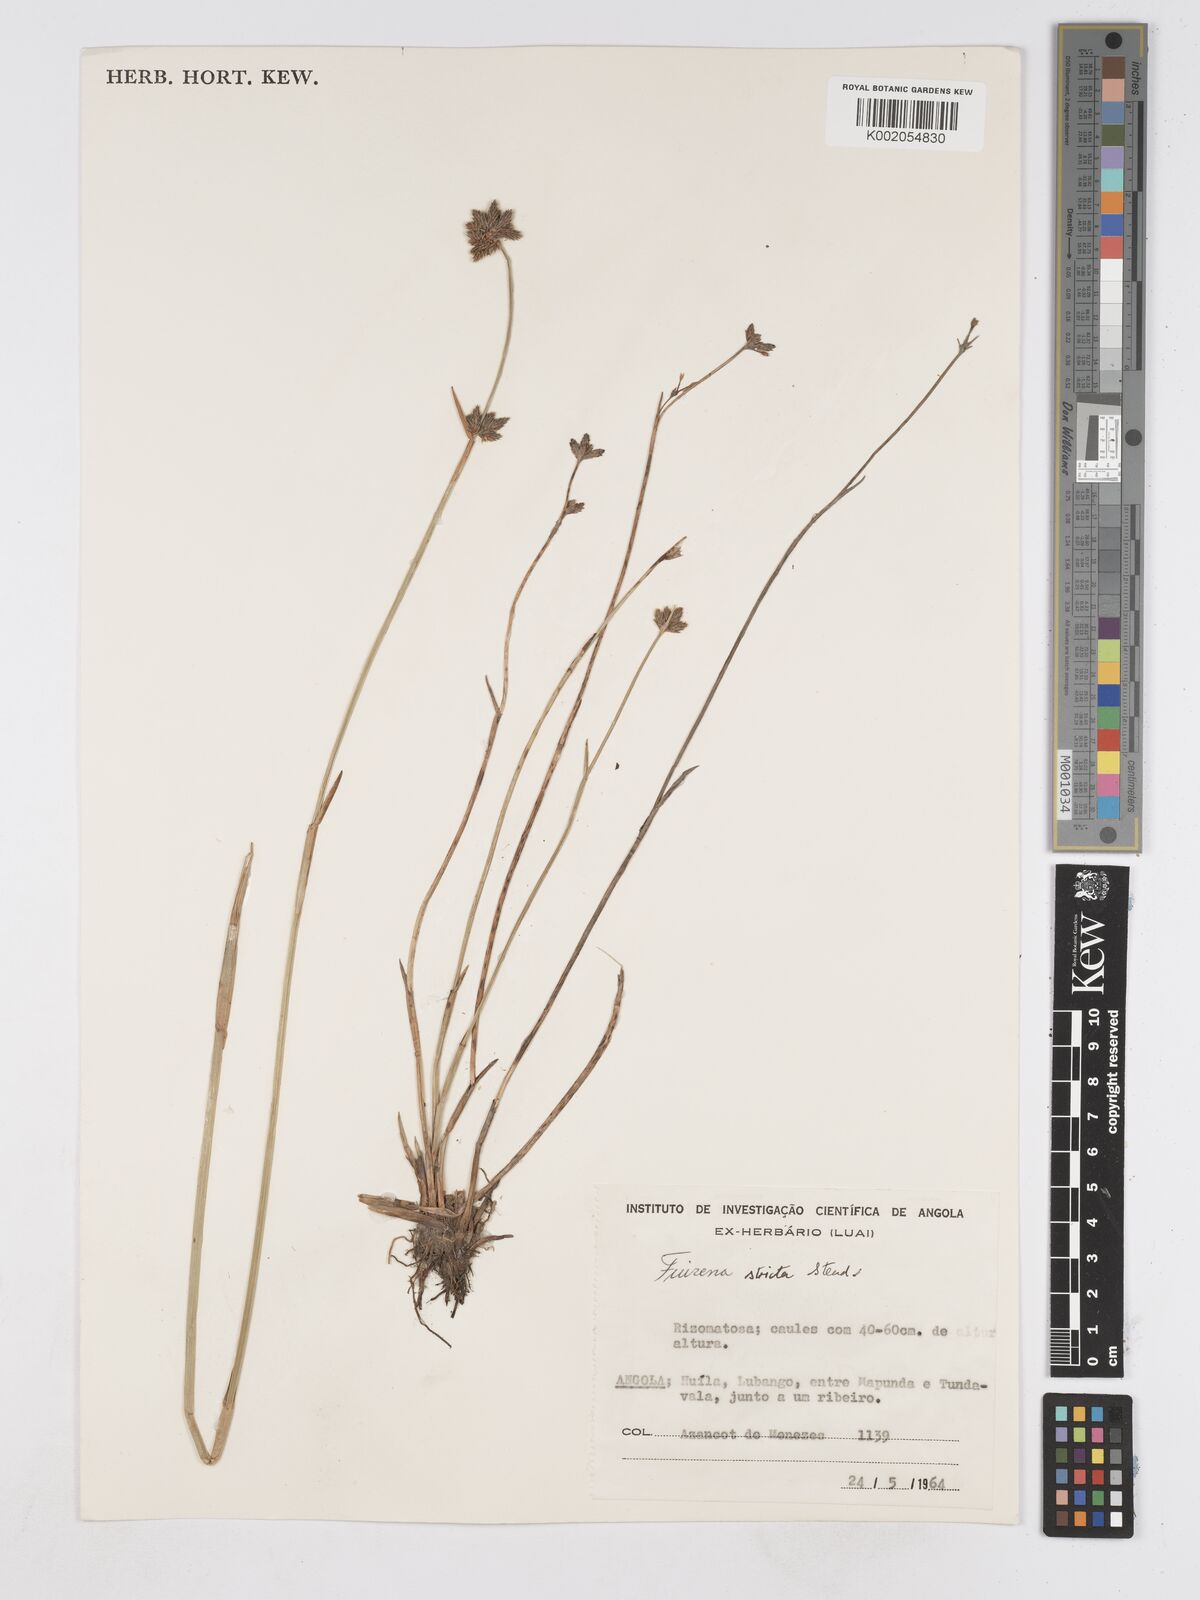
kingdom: Plantae
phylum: Tracheophyta
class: Liliopsida
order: Poales
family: Cyperaceae
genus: Fuirena
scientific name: Fuirena stricta
